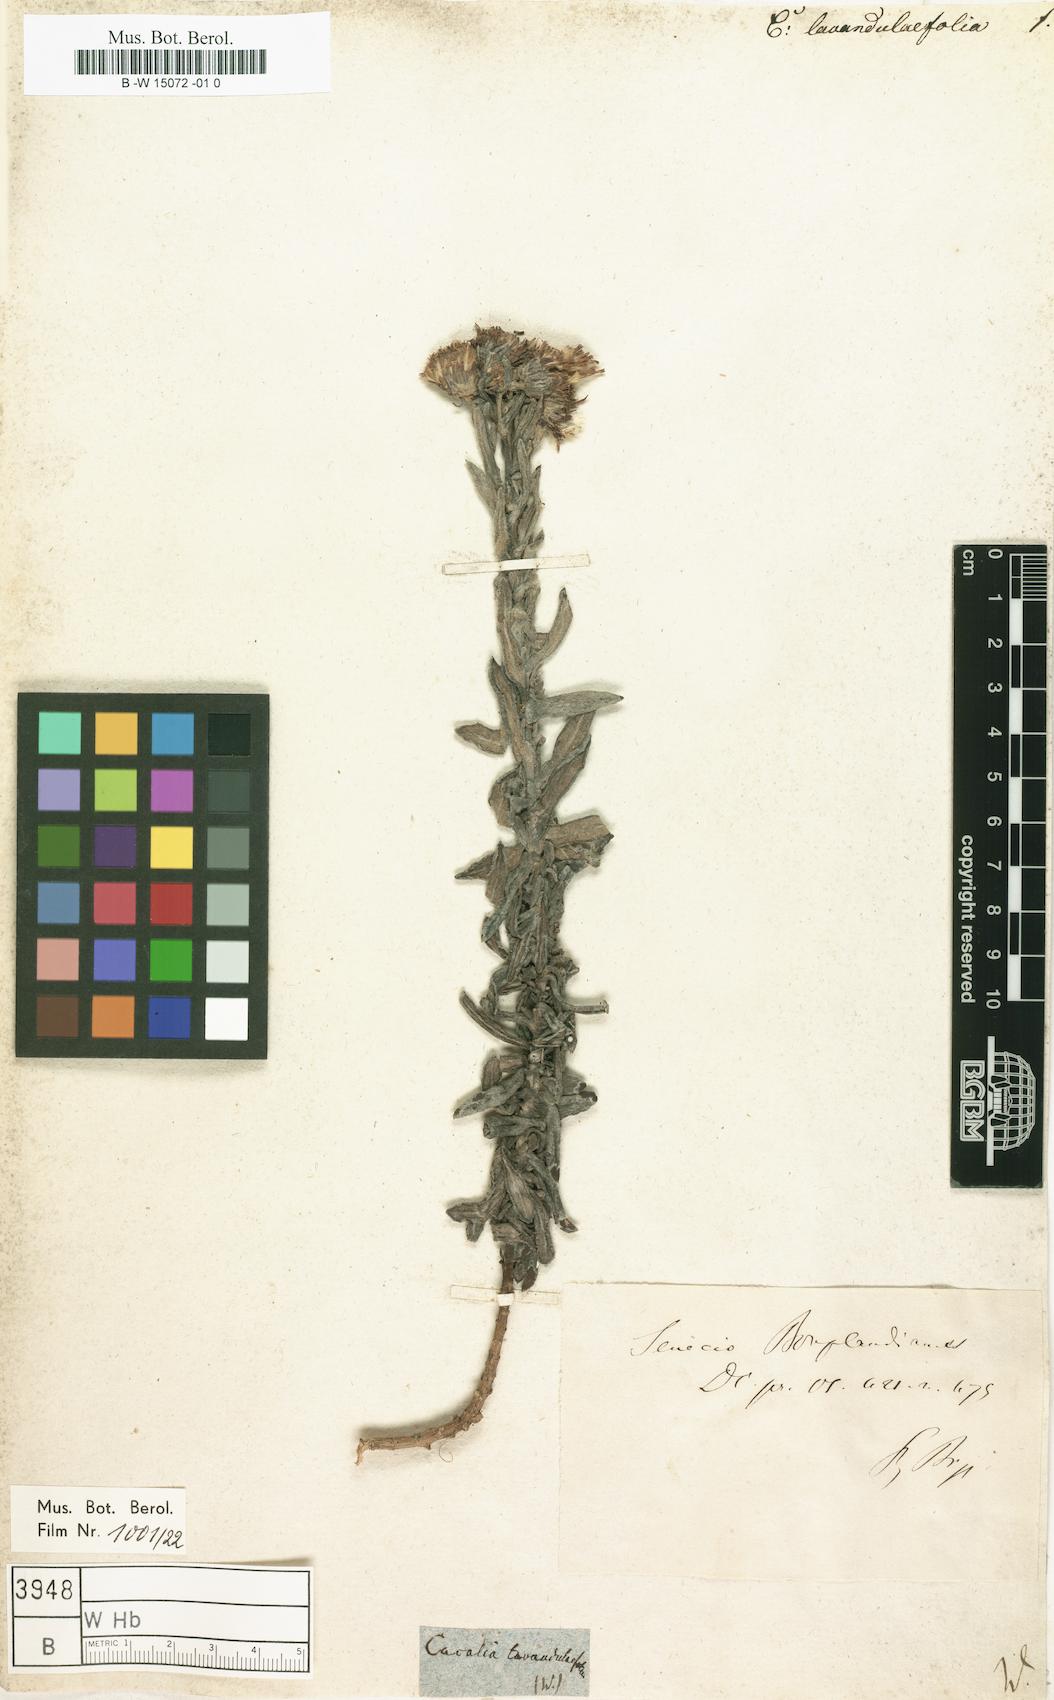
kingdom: Plantae
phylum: Tracheophyta
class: Magnoliopsida
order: Asterales
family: Asteraceae
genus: Cacalia
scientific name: Cacalia
